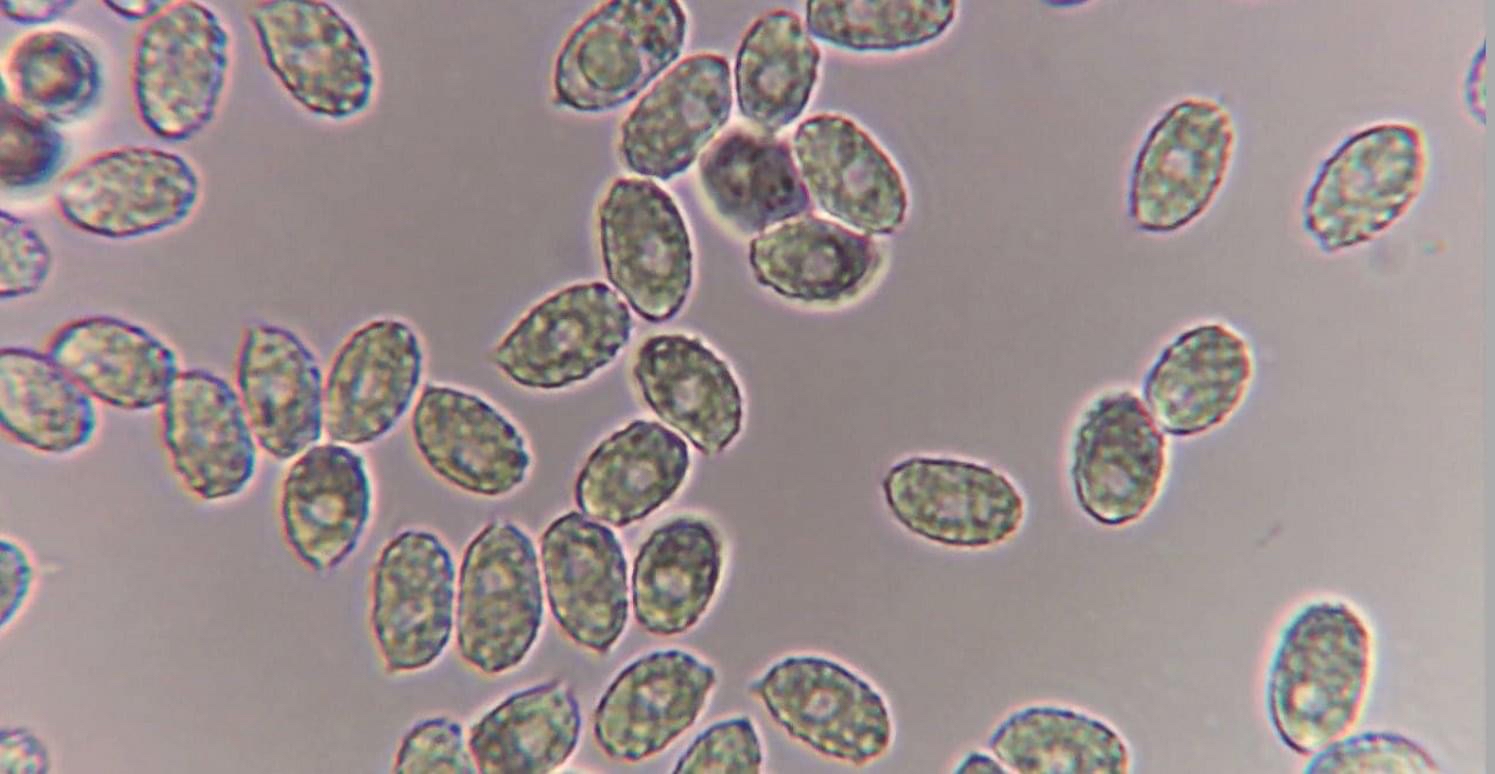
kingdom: Fungi
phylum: Basidiomycota
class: Agaricomycetes
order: Agaricales
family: Tricholomataceae
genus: Melanoleuca
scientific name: Melanoleuca
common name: munkehat
